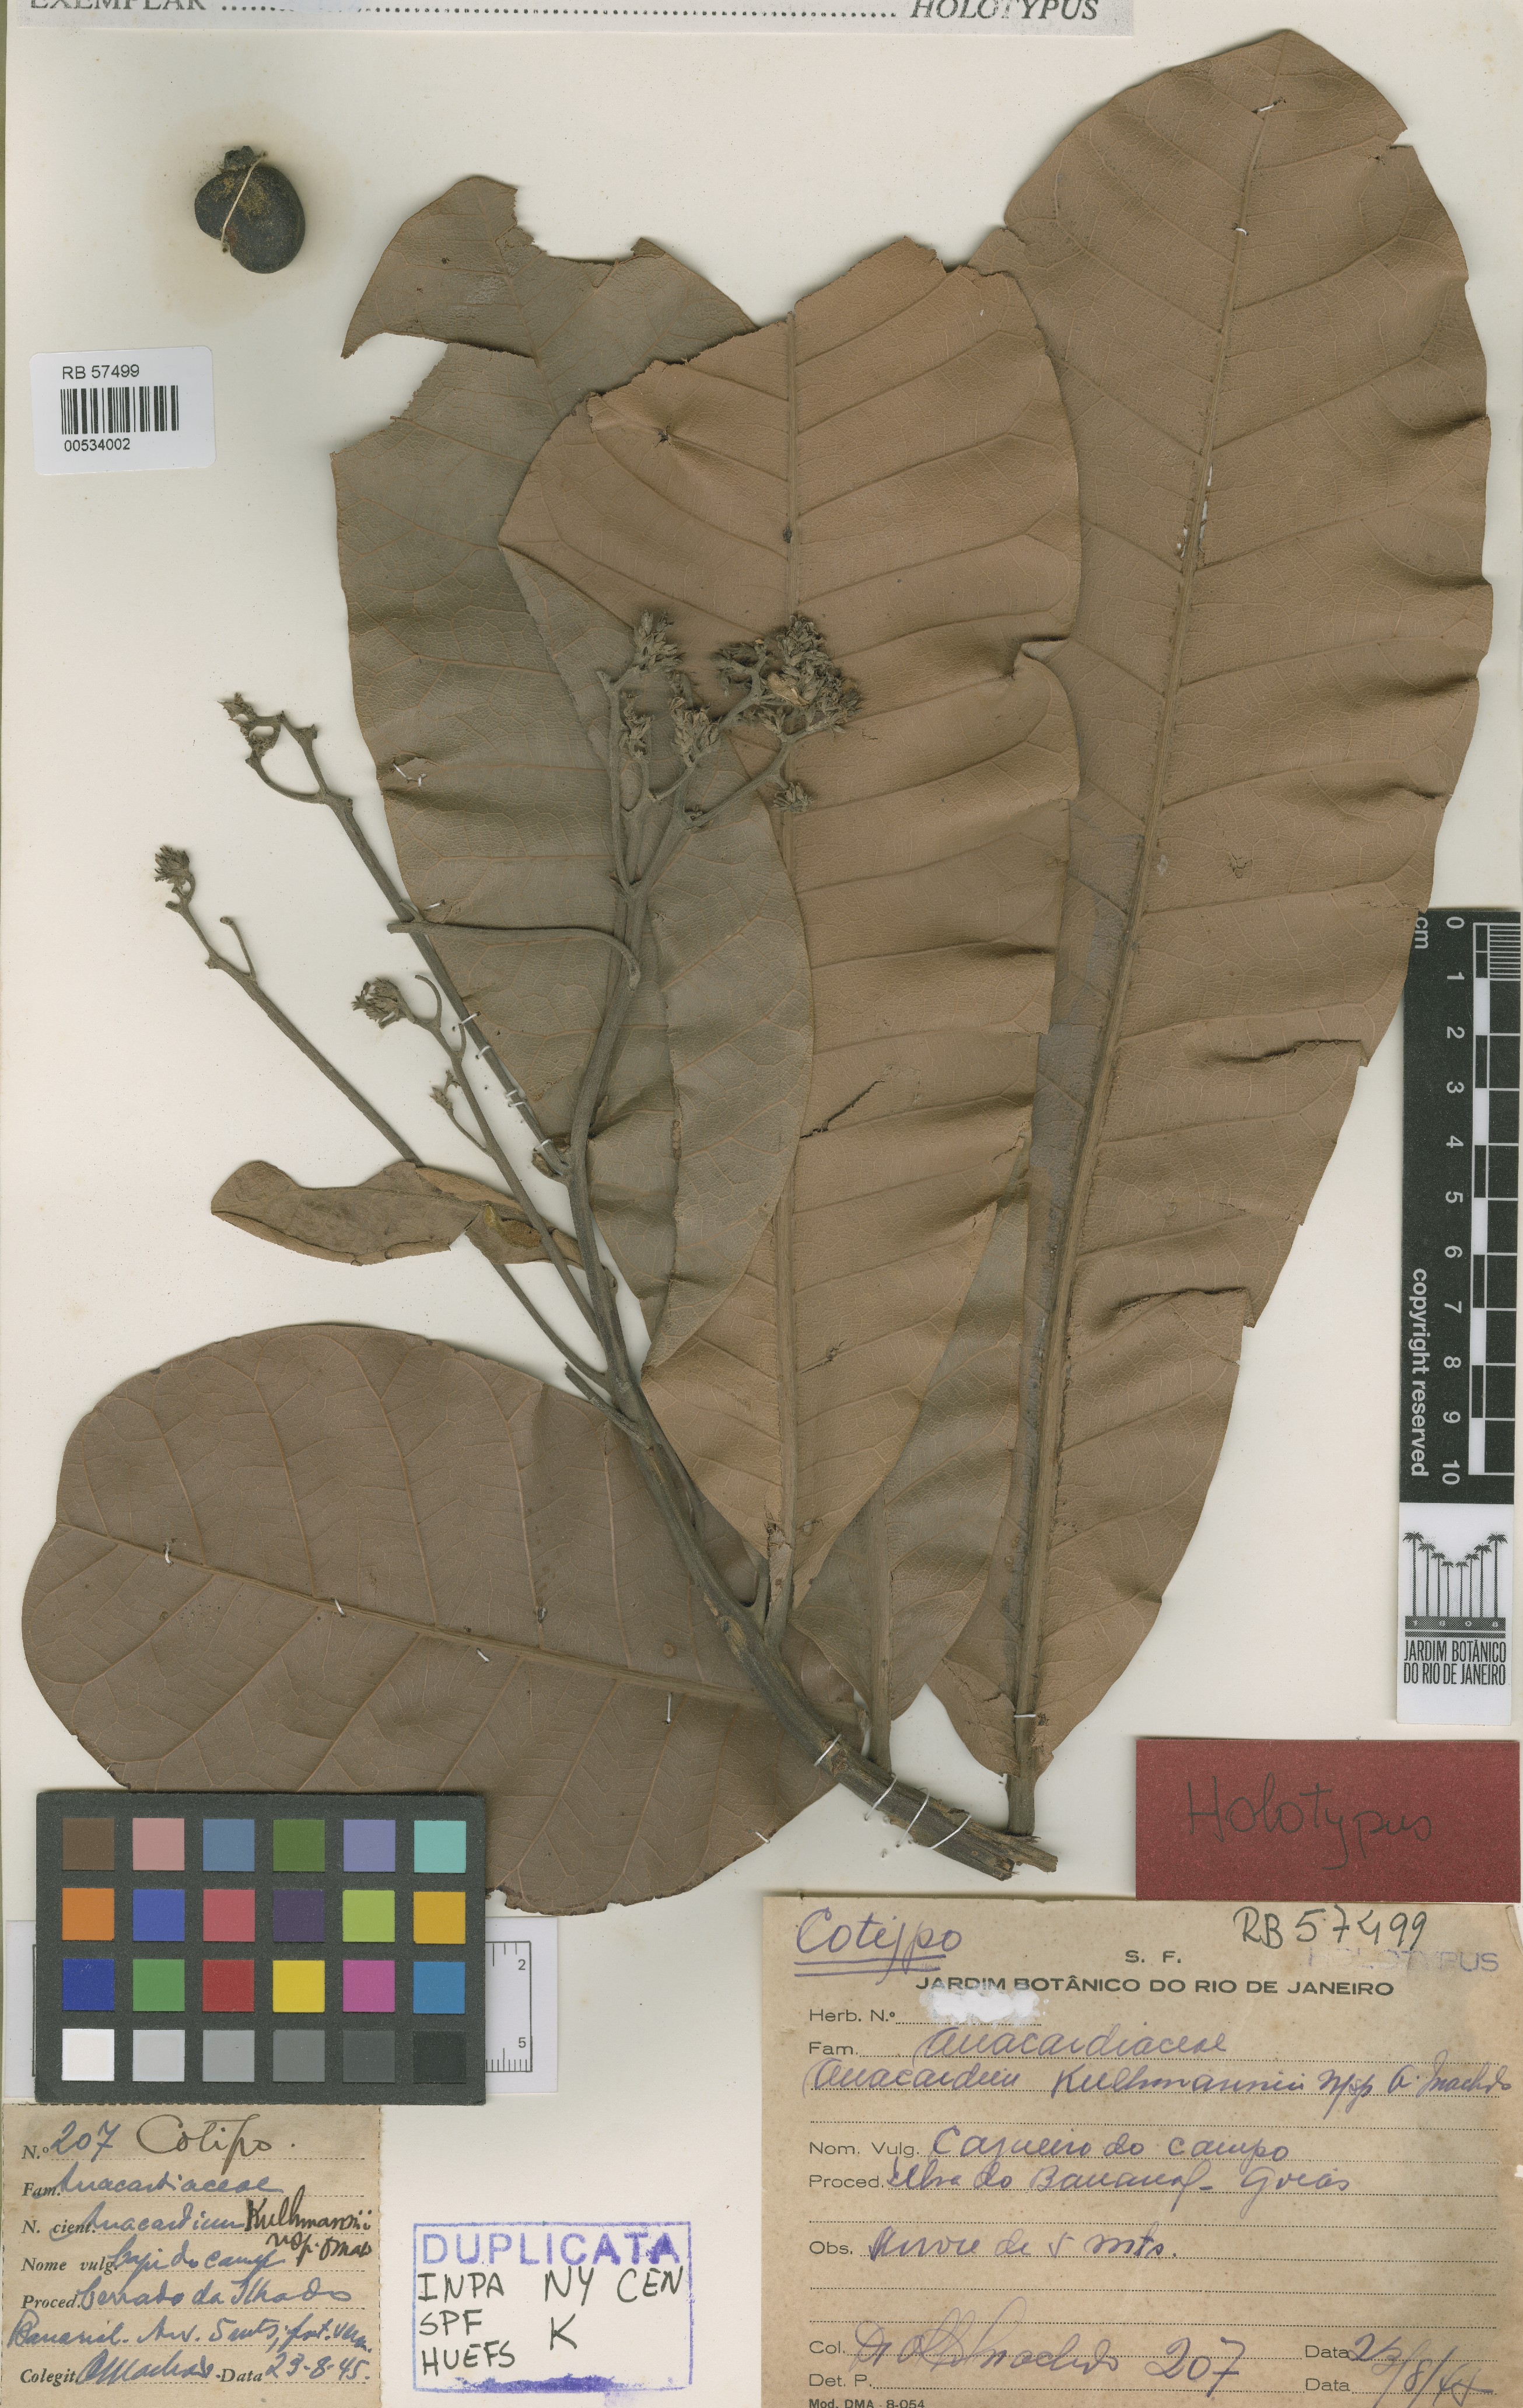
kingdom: Plantae
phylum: Tracheophyta
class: Magnoliopsida
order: Sapindales
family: Anacardiaceae
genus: Anacardium
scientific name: Anacardium occidentale
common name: Cashew
